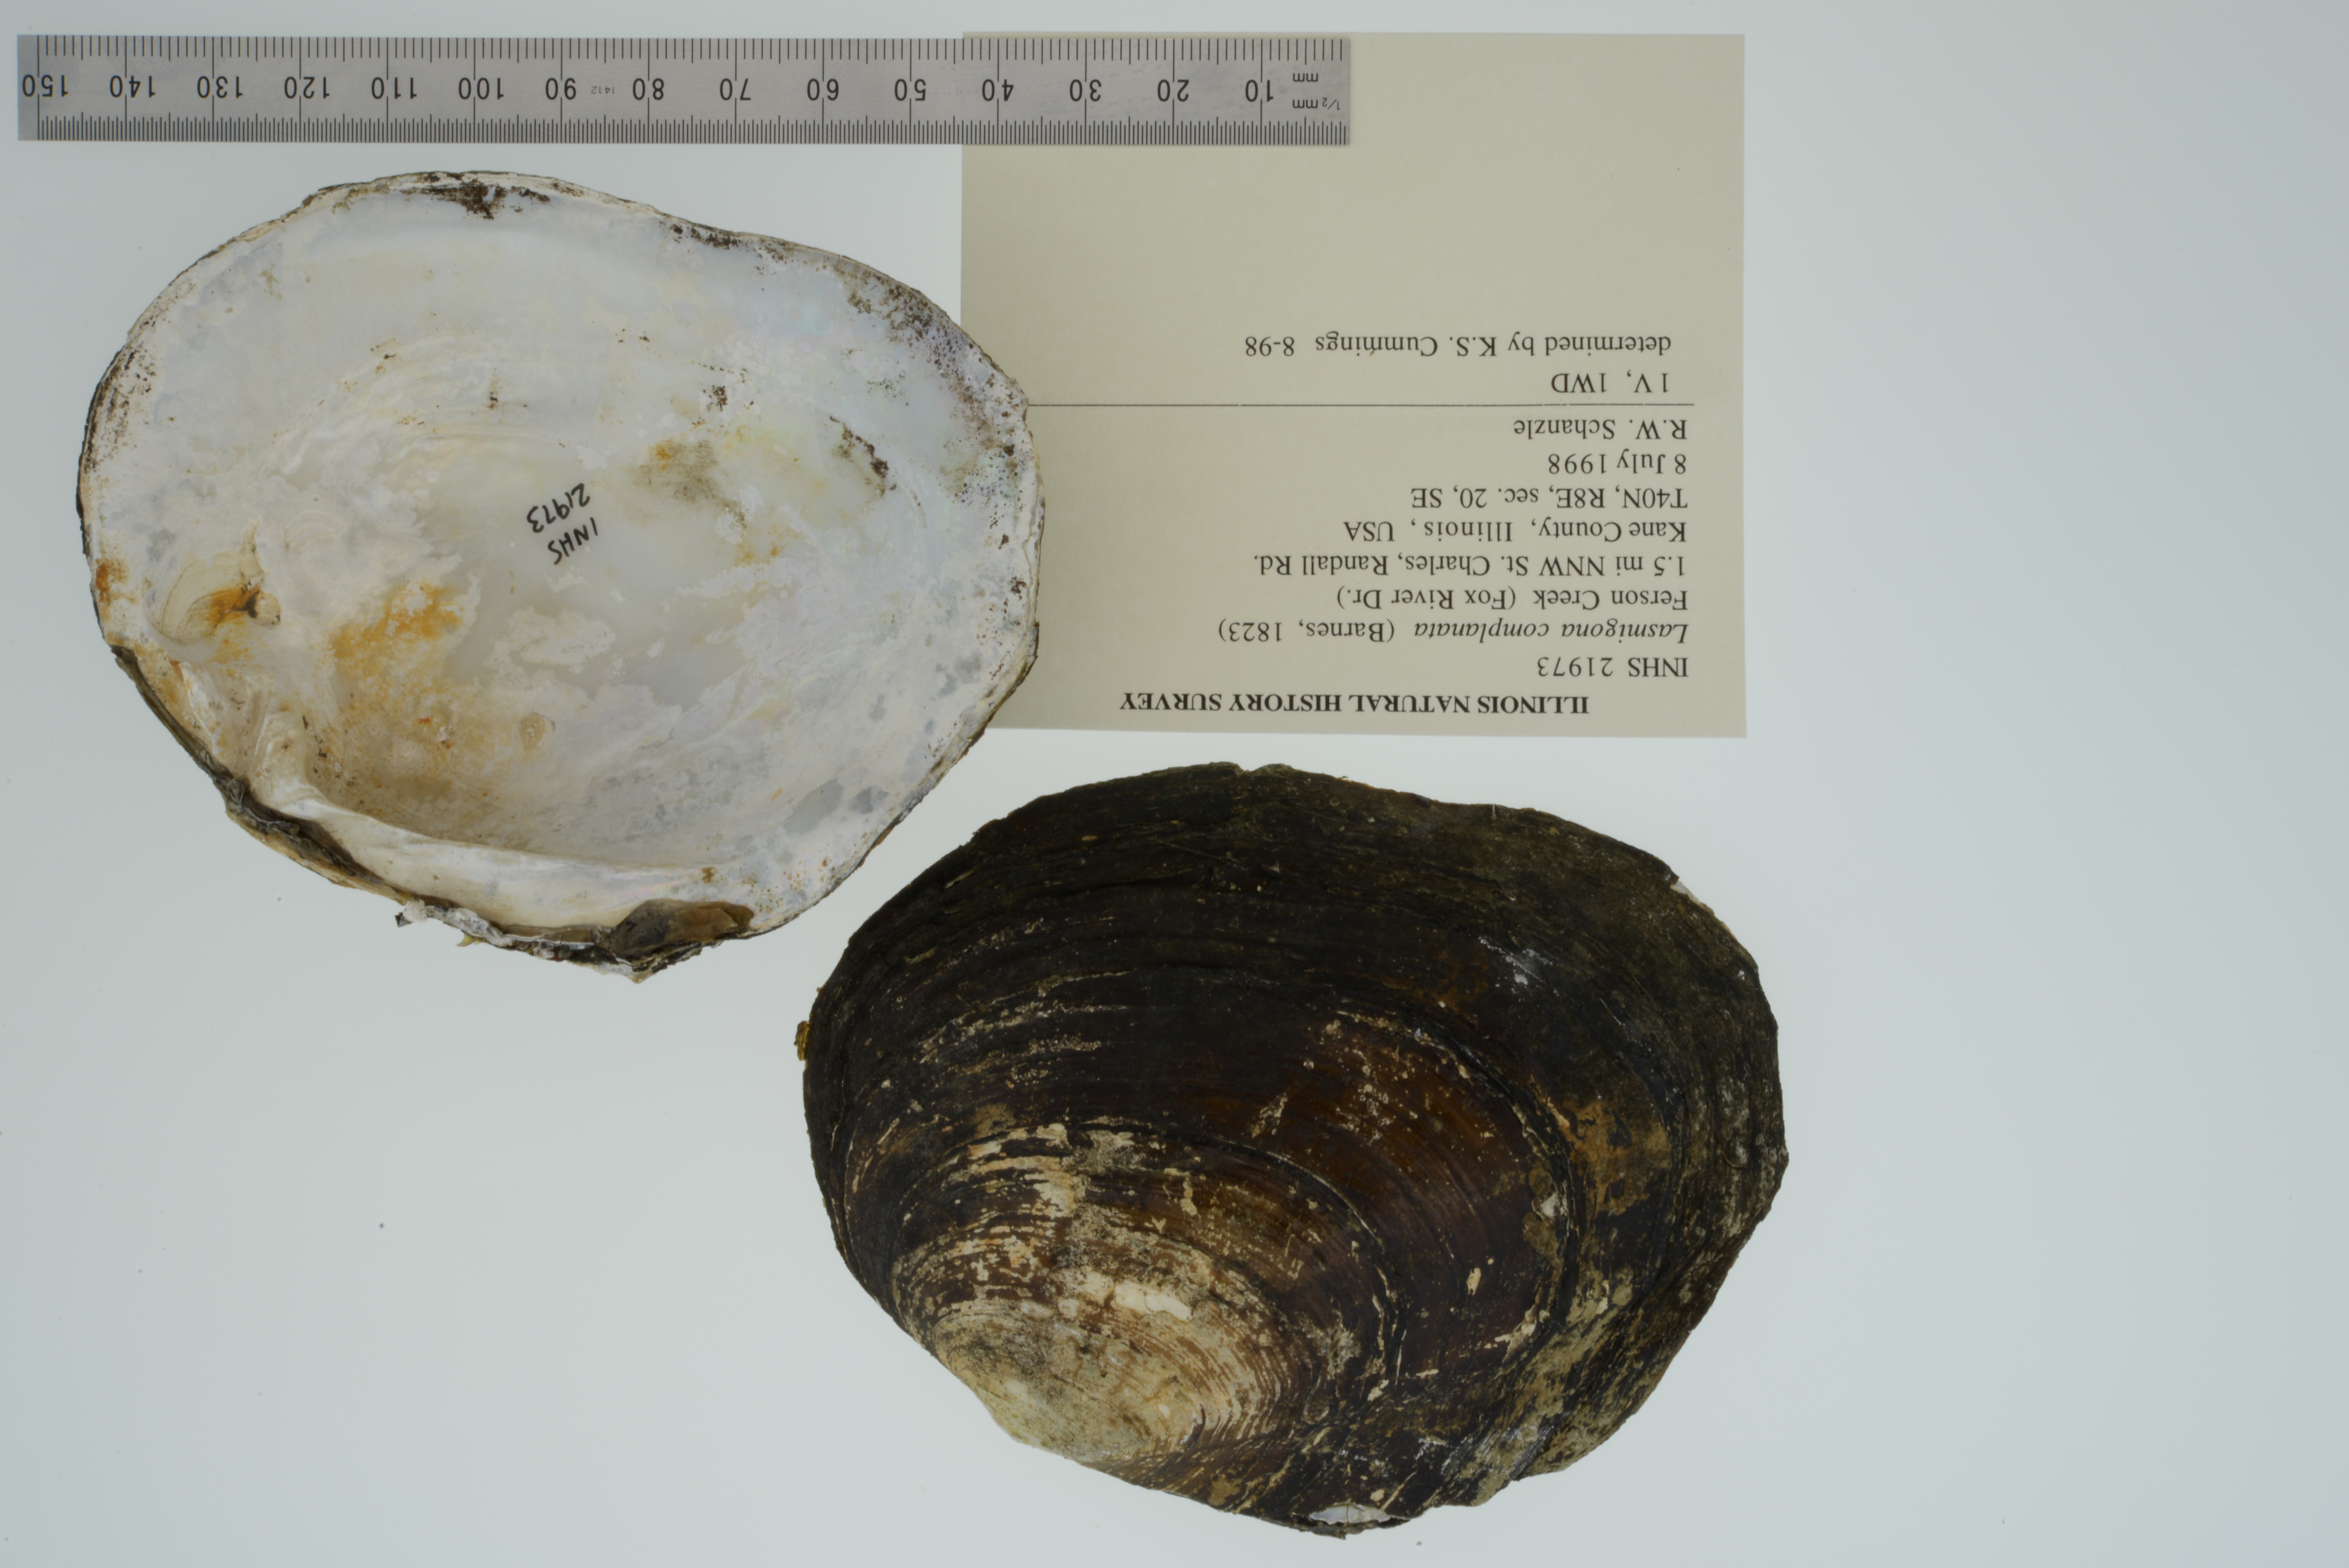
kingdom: Animalia
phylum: Mollusca
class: Bivalvia
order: Unionida
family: Unionidae
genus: Lasmigona
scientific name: Lasmigona complanata
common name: White heelsplitter
